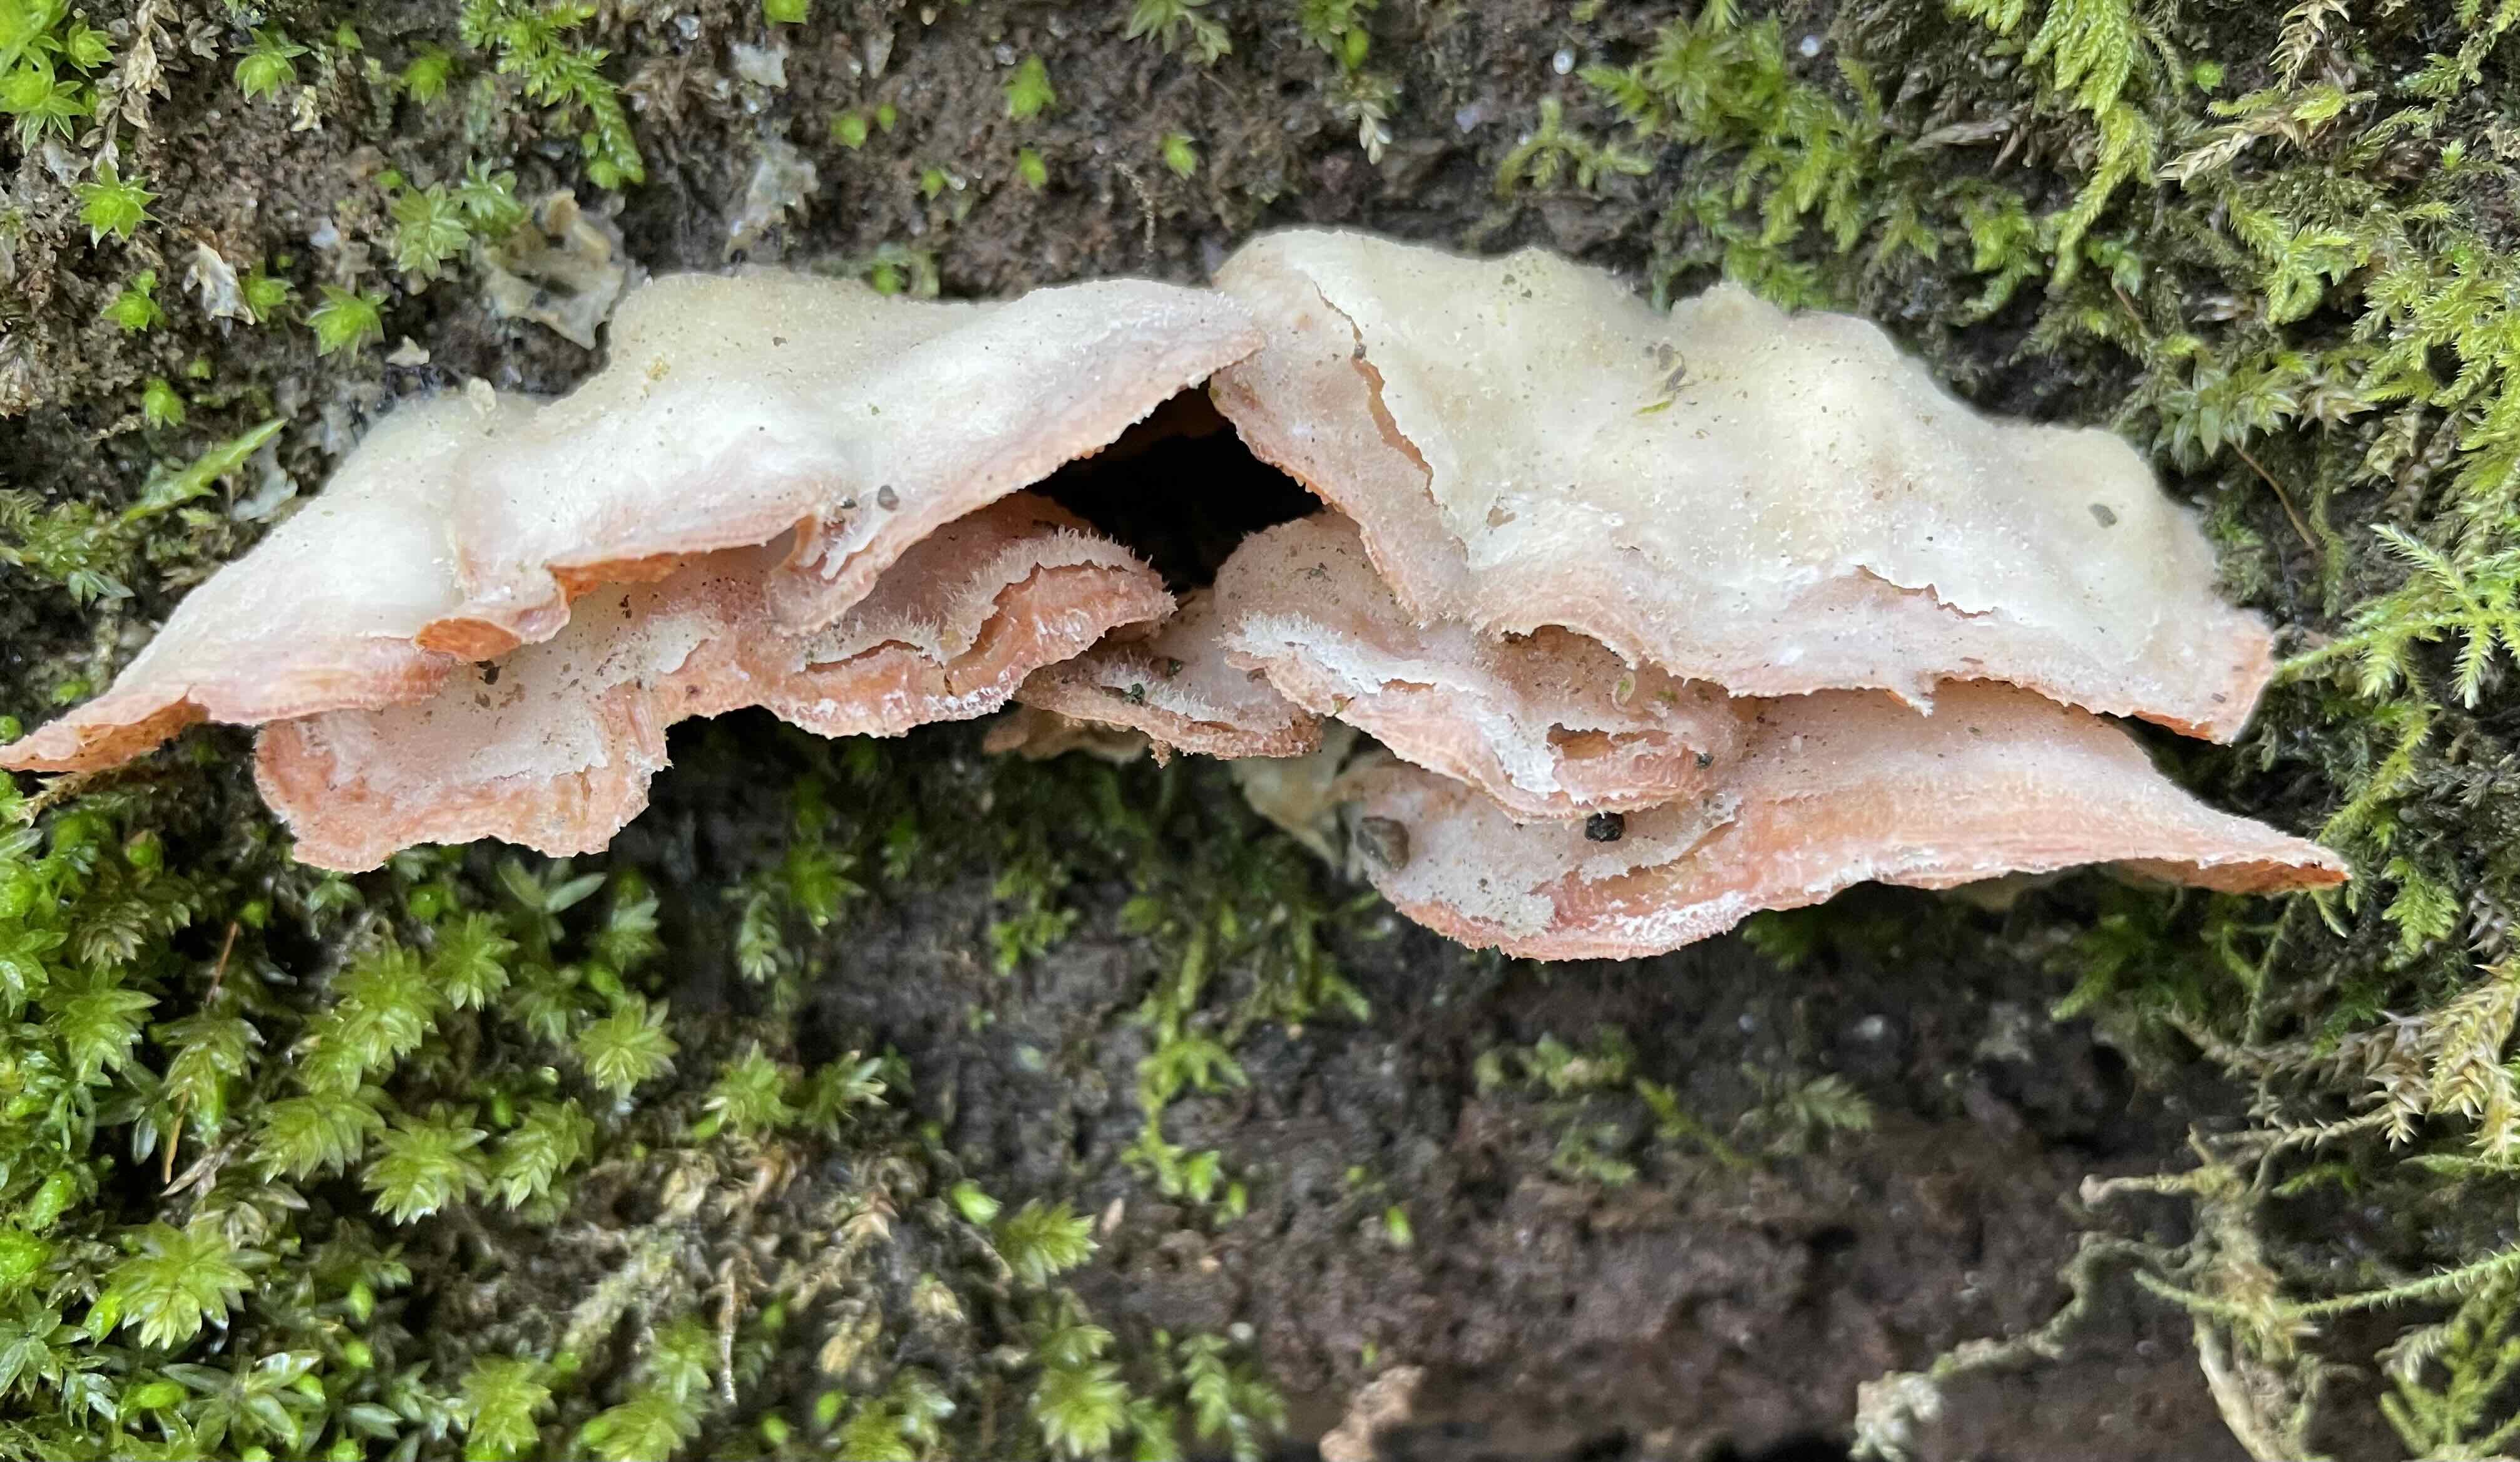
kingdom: Fungi
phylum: Basidiomycota
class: Agaricomycetes
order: Polyporales
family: Meruliaceae
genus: Phlebia
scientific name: Phlebia tremellosa
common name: bævrende åresvamp
